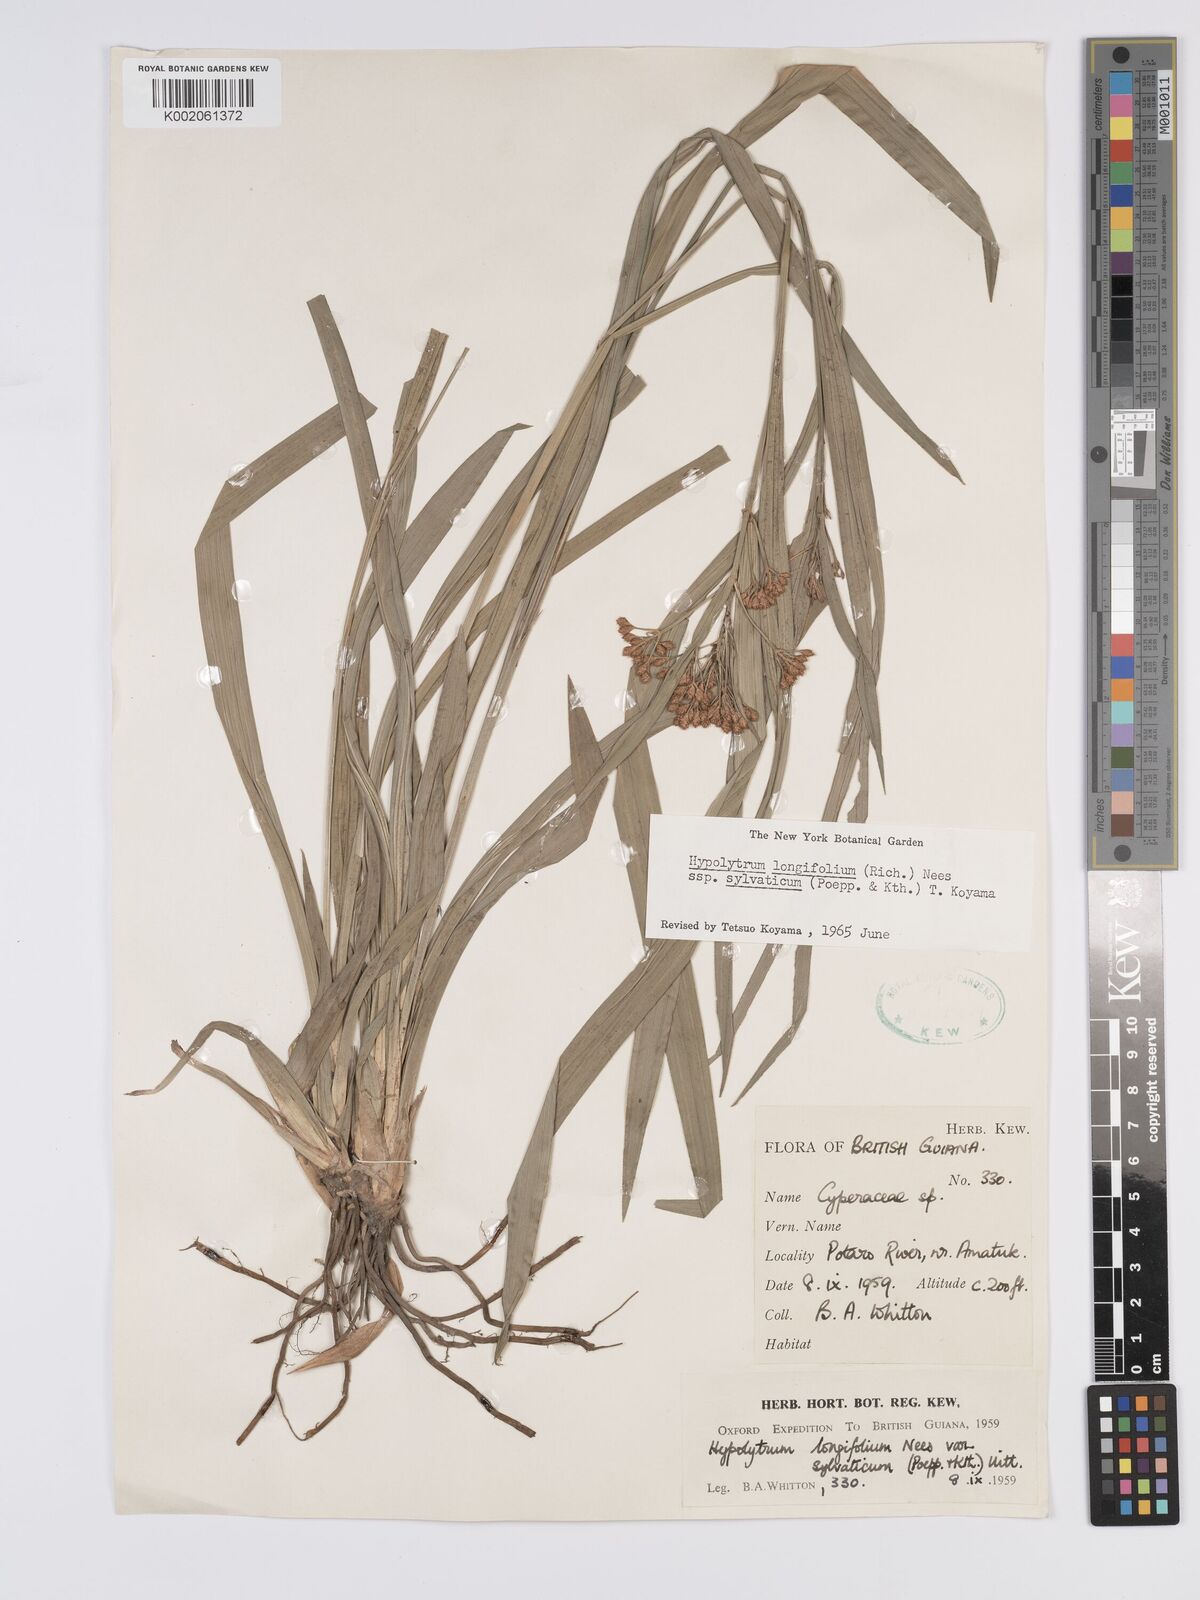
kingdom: Plantae
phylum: Tracheophyta
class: Liliopsida
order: Poales
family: Cyperaceae
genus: Hypolytrum
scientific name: Hypolytrum longifolium
